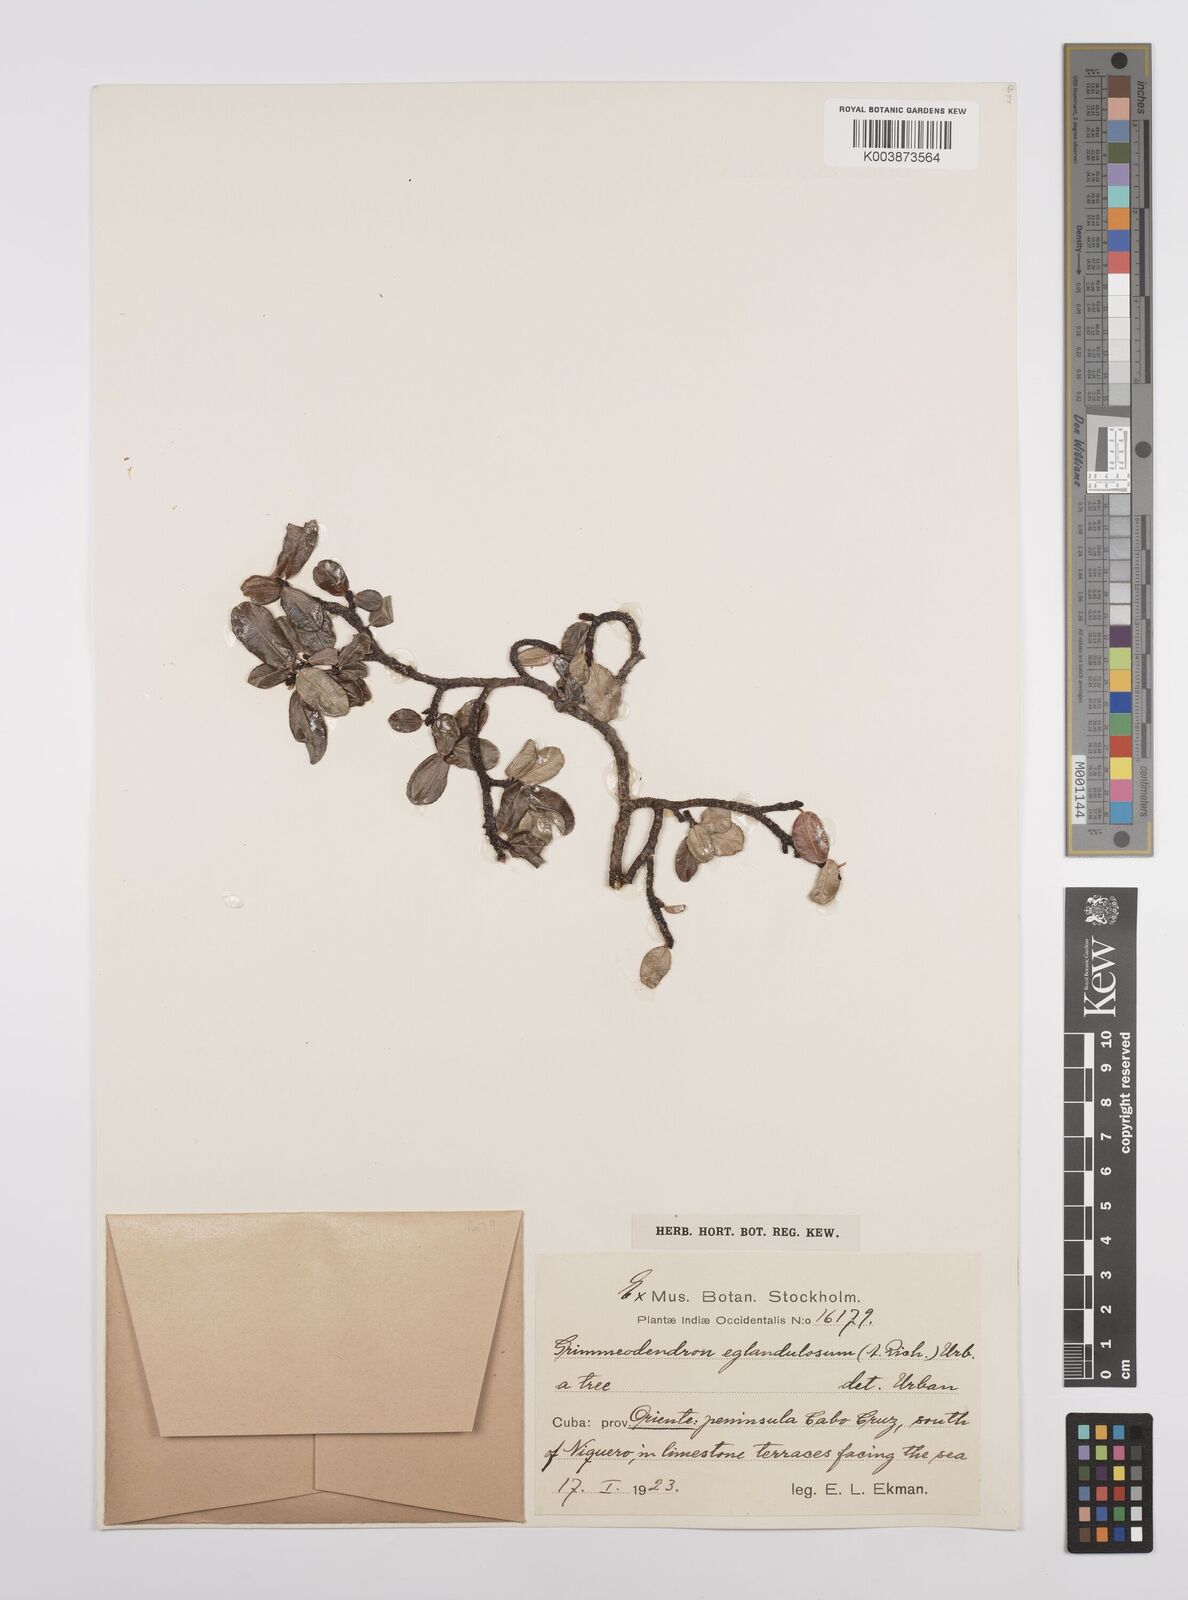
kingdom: Plantae
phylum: Tracheophyta
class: Magnoliopsida
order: Malpighiales
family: Euphorbiaceae
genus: Grimmeodendron
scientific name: Grimmeodendron eglandulosum
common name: Grimm’s tree
